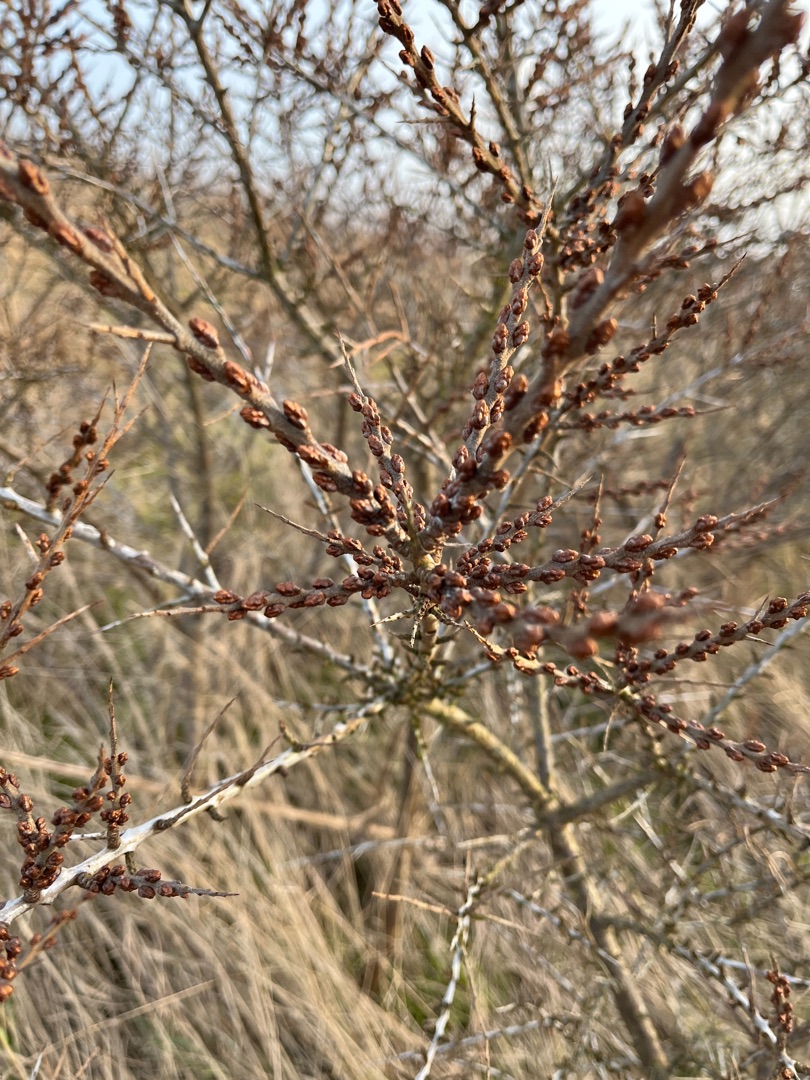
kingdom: Plantae
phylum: Tracheophyta
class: Magnoliopsida
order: Rosales
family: Elaeagnaceae
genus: Hippophae
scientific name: Hippophae rhamnoides
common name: Havtorn
